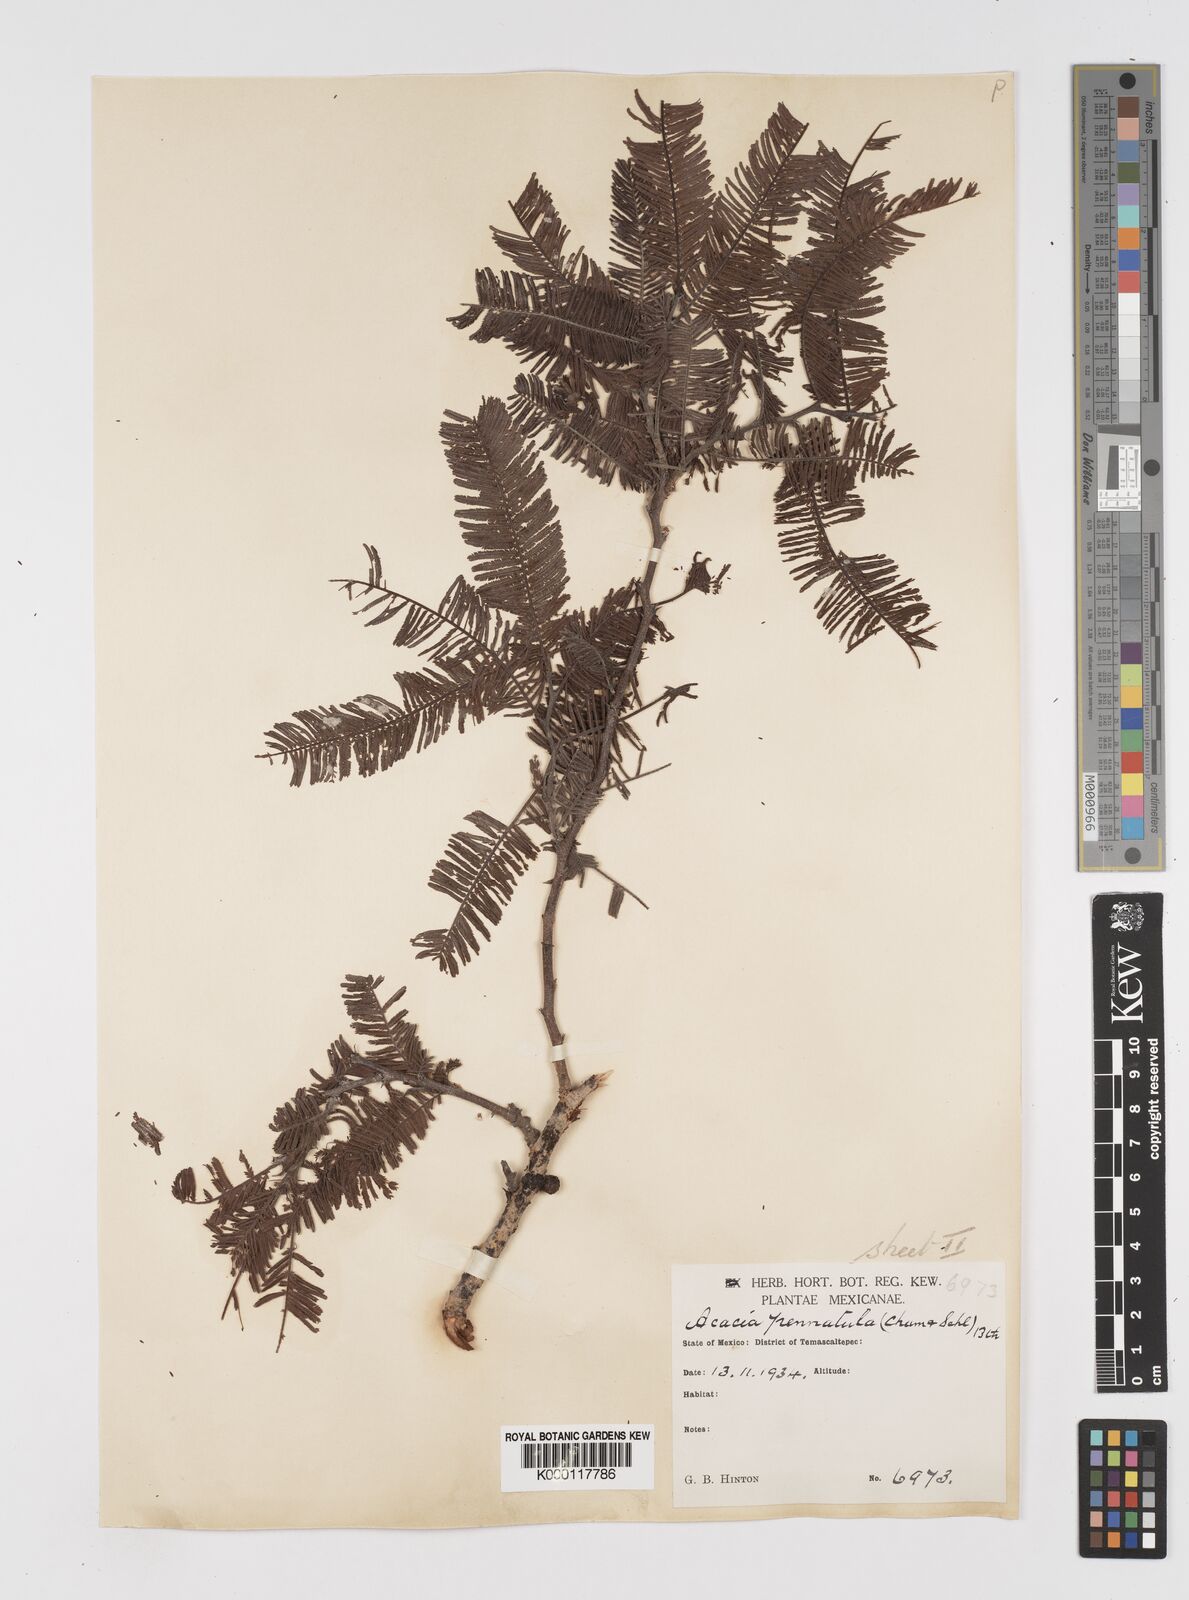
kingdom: Plantae
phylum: Tracheophyta
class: Magnoliopsida
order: Fabales
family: Fabaceae
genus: Vachellia
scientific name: Vachellia pennatula
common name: Fern-leaf acacia
